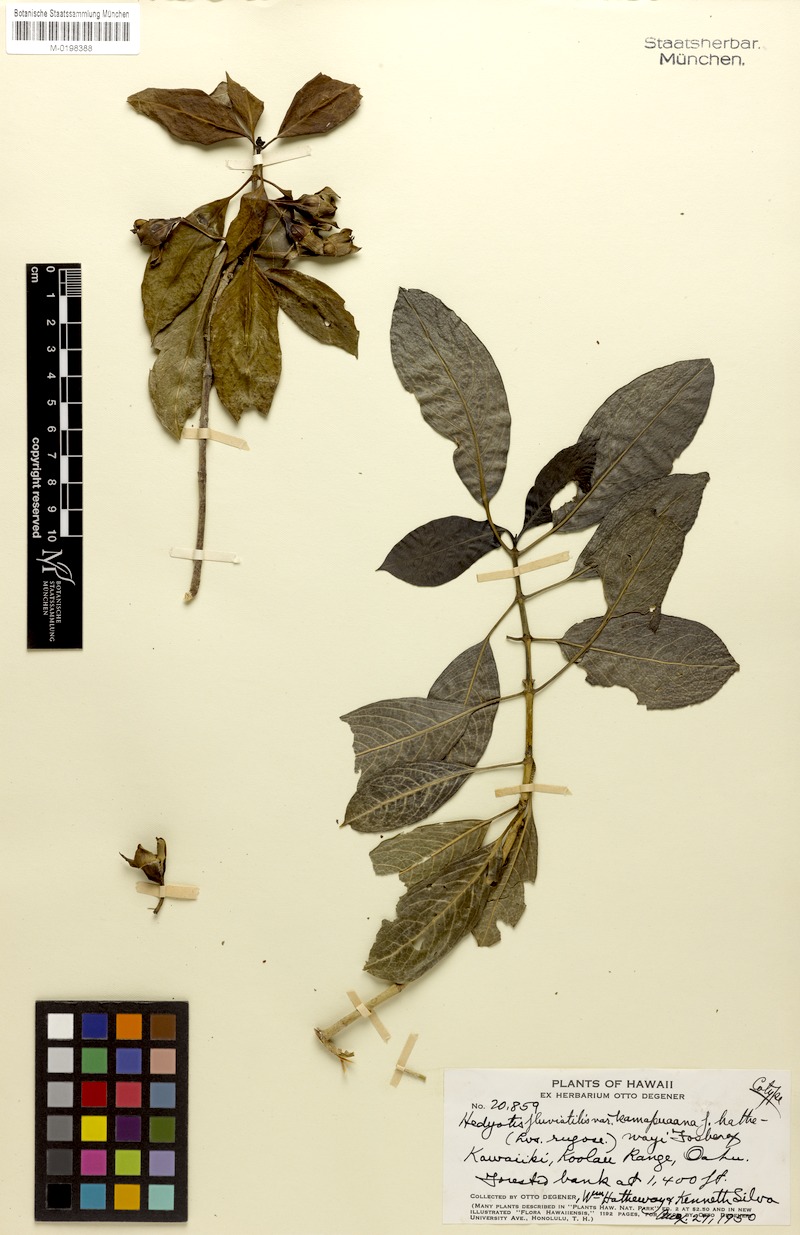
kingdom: Plantae
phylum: Tracheophyta
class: Magnoliopsida
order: Gentianales
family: Rubiaceae
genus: Kadua
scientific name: Kadua fluviatilis
